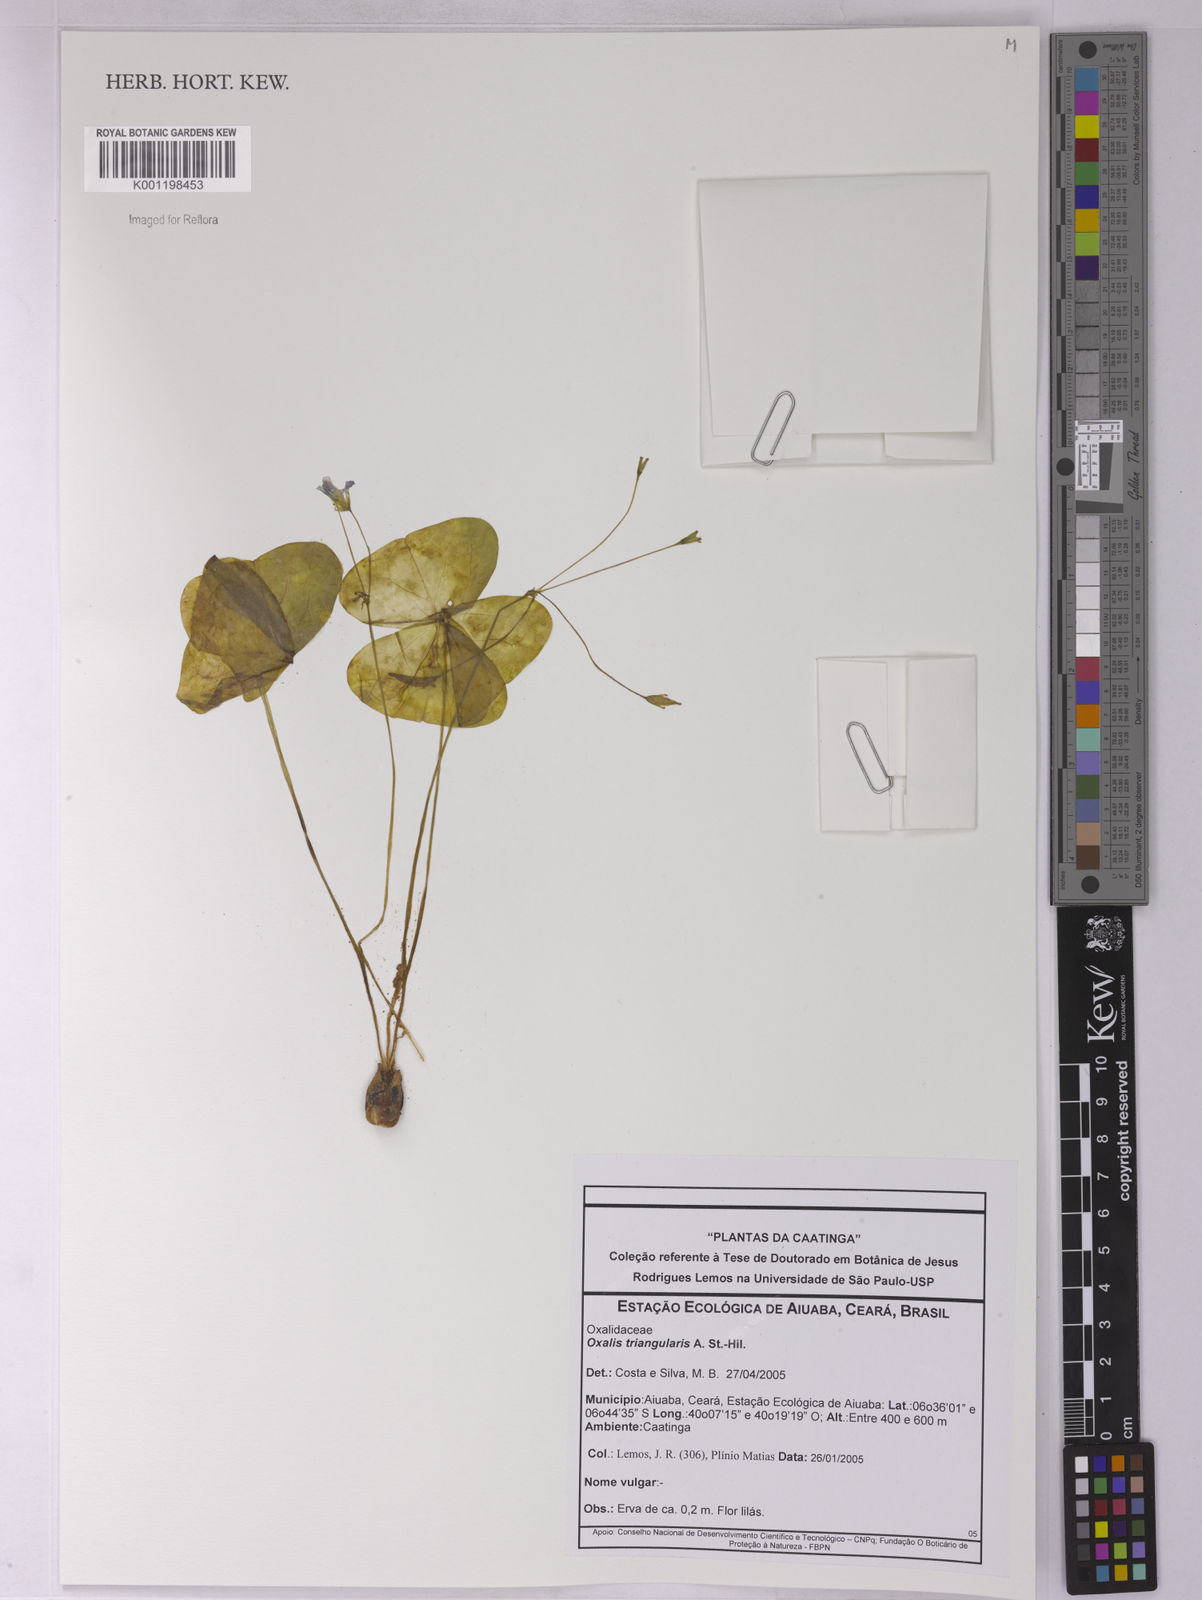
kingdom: Plantae
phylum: Tracheophyta
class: Magnoliopsida
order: Oxalidales
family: Oxalidaceae
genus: Oxalis
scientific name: Oxalis triangularis
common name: Wood sorrel
